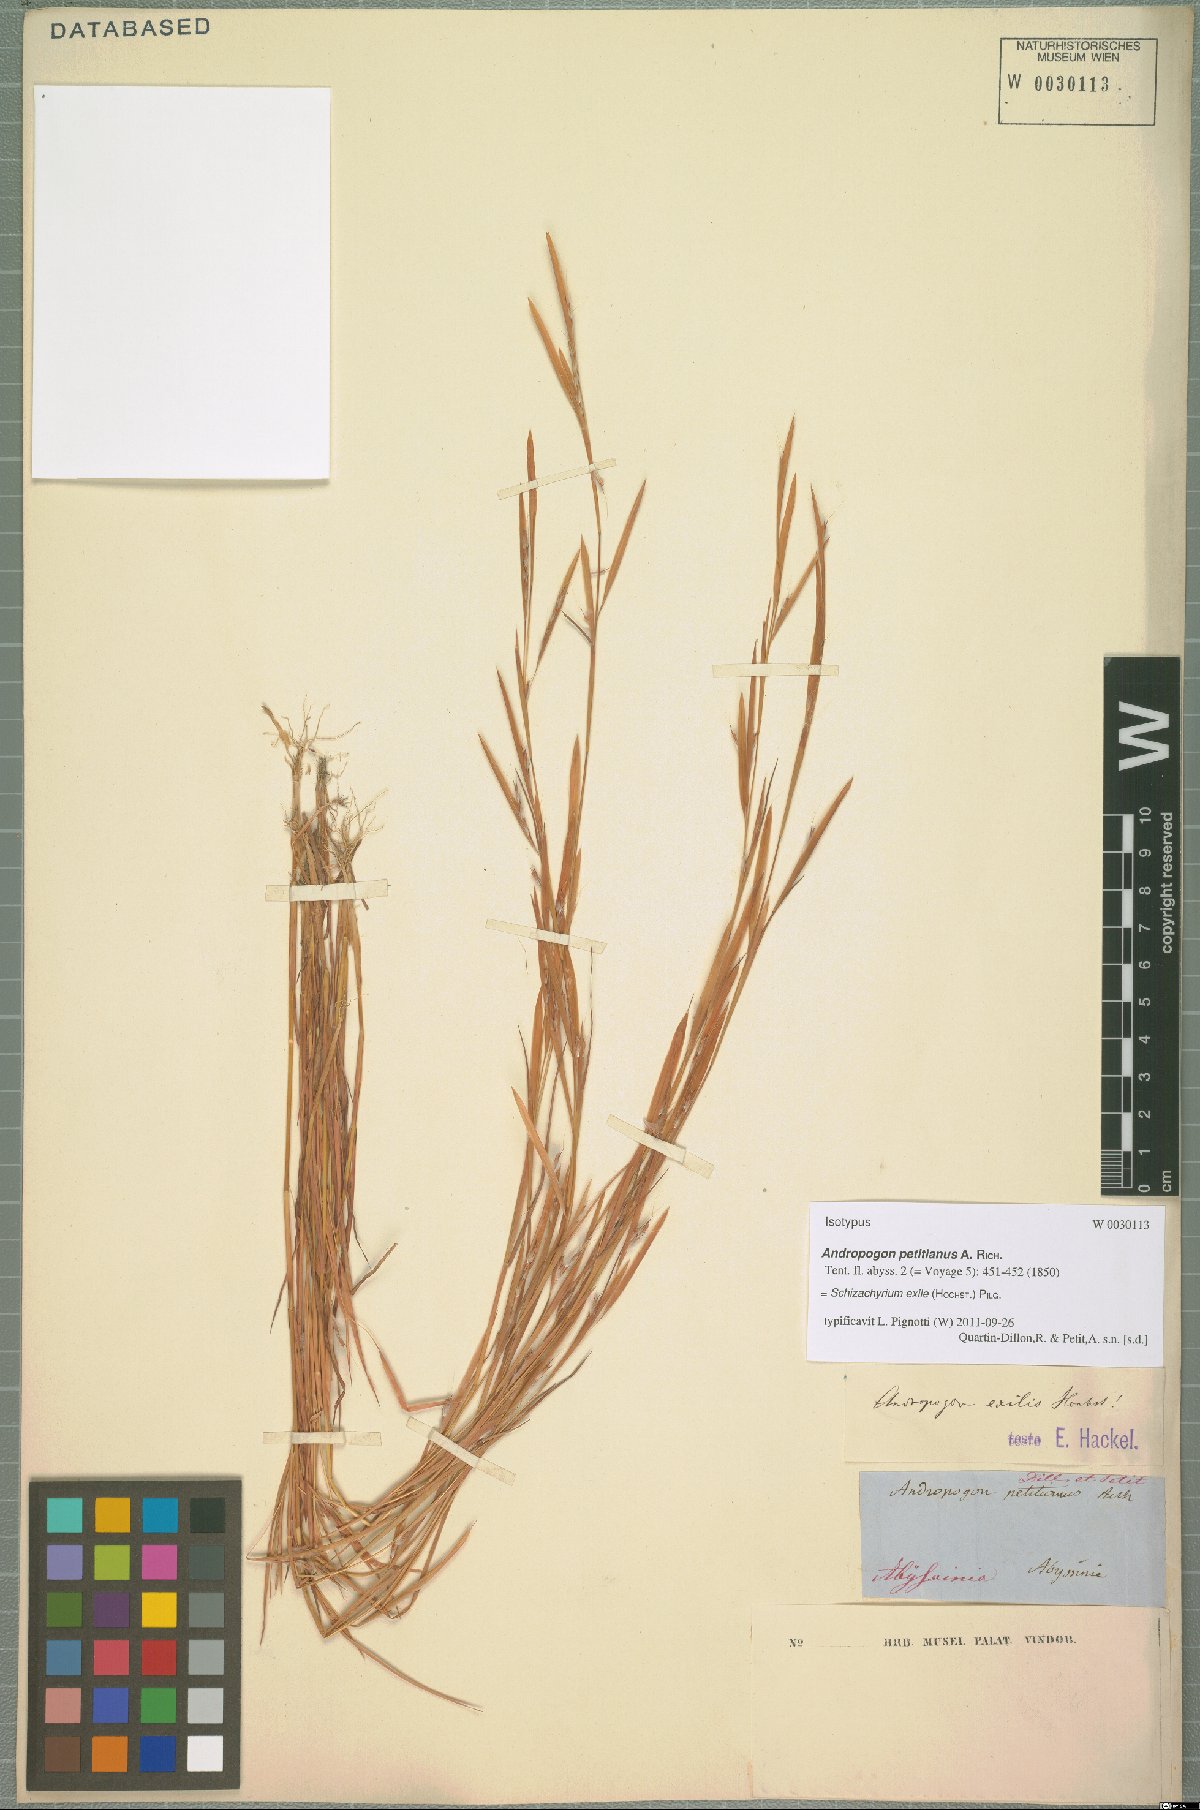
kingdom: Plantae
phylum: Tracheophyta
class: Liliopsida
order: Poales
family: Poaceae
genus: Schizachyrium
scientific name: Schizachyrium exile
